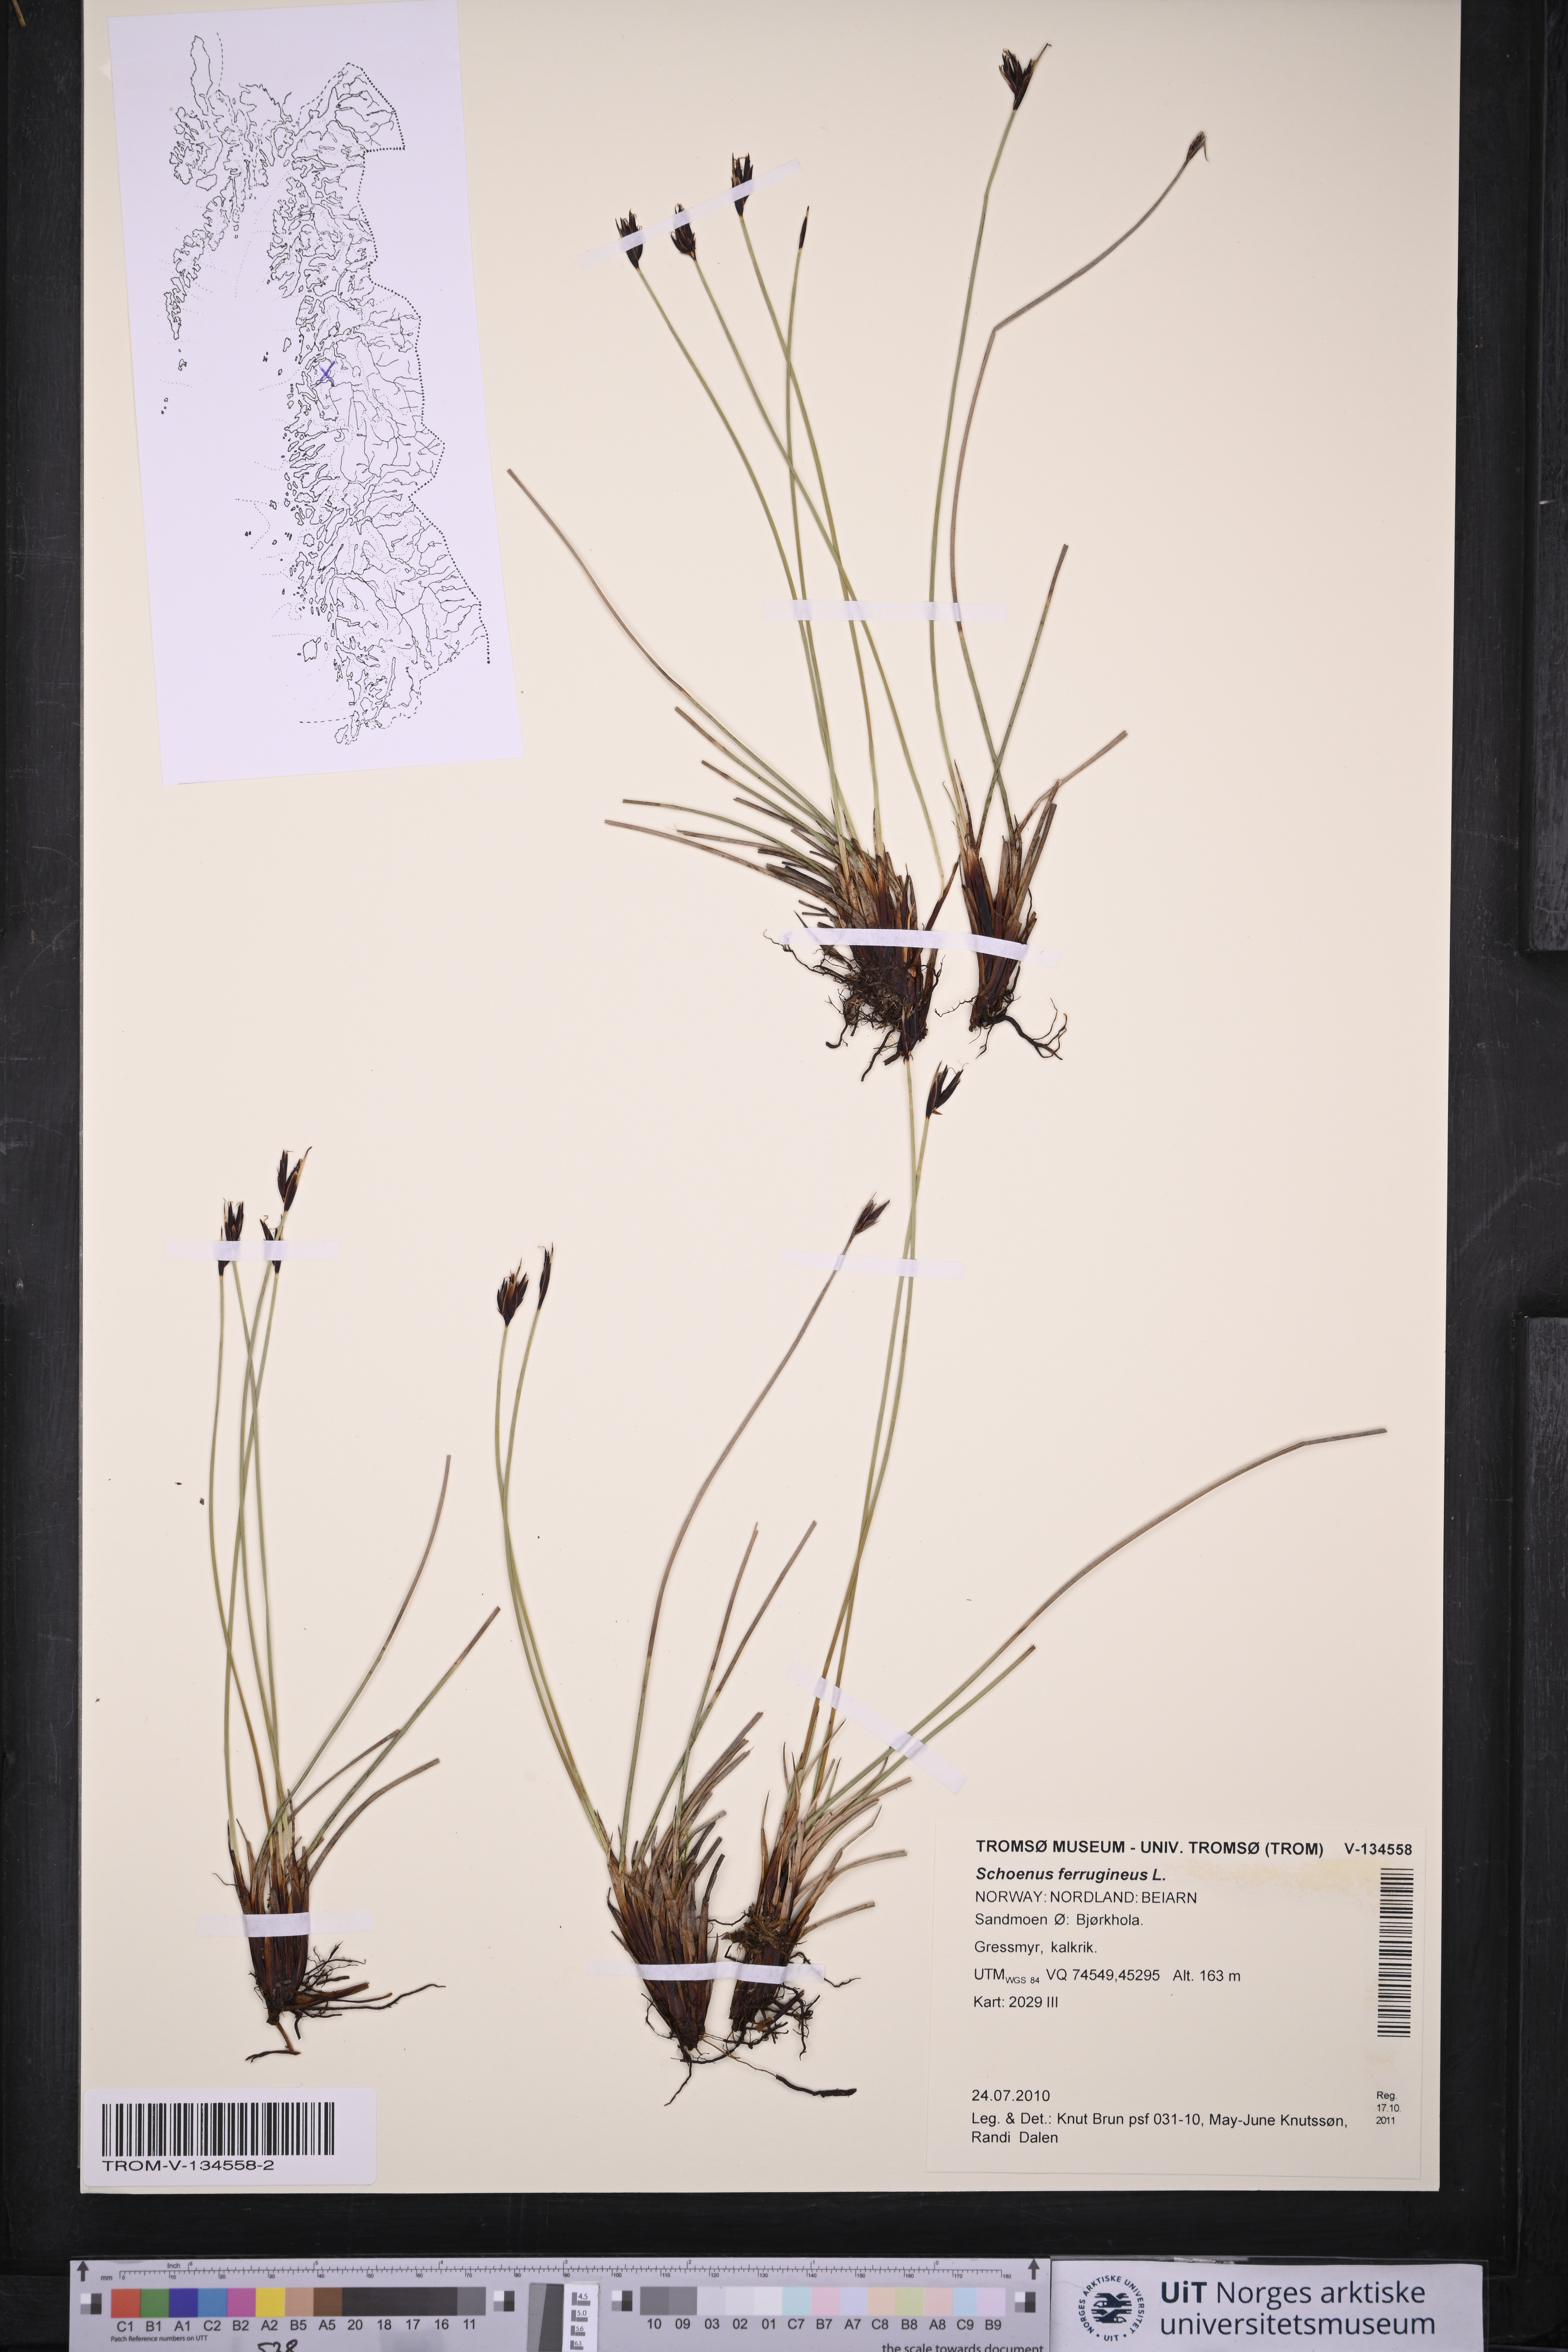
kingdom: Plantae
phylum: Tracheophyta
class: Liliopsida
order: Poales
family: Cyperaceae
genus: Schoenus
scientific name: Schoenus ferrugineus
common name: Brown bog-rush
